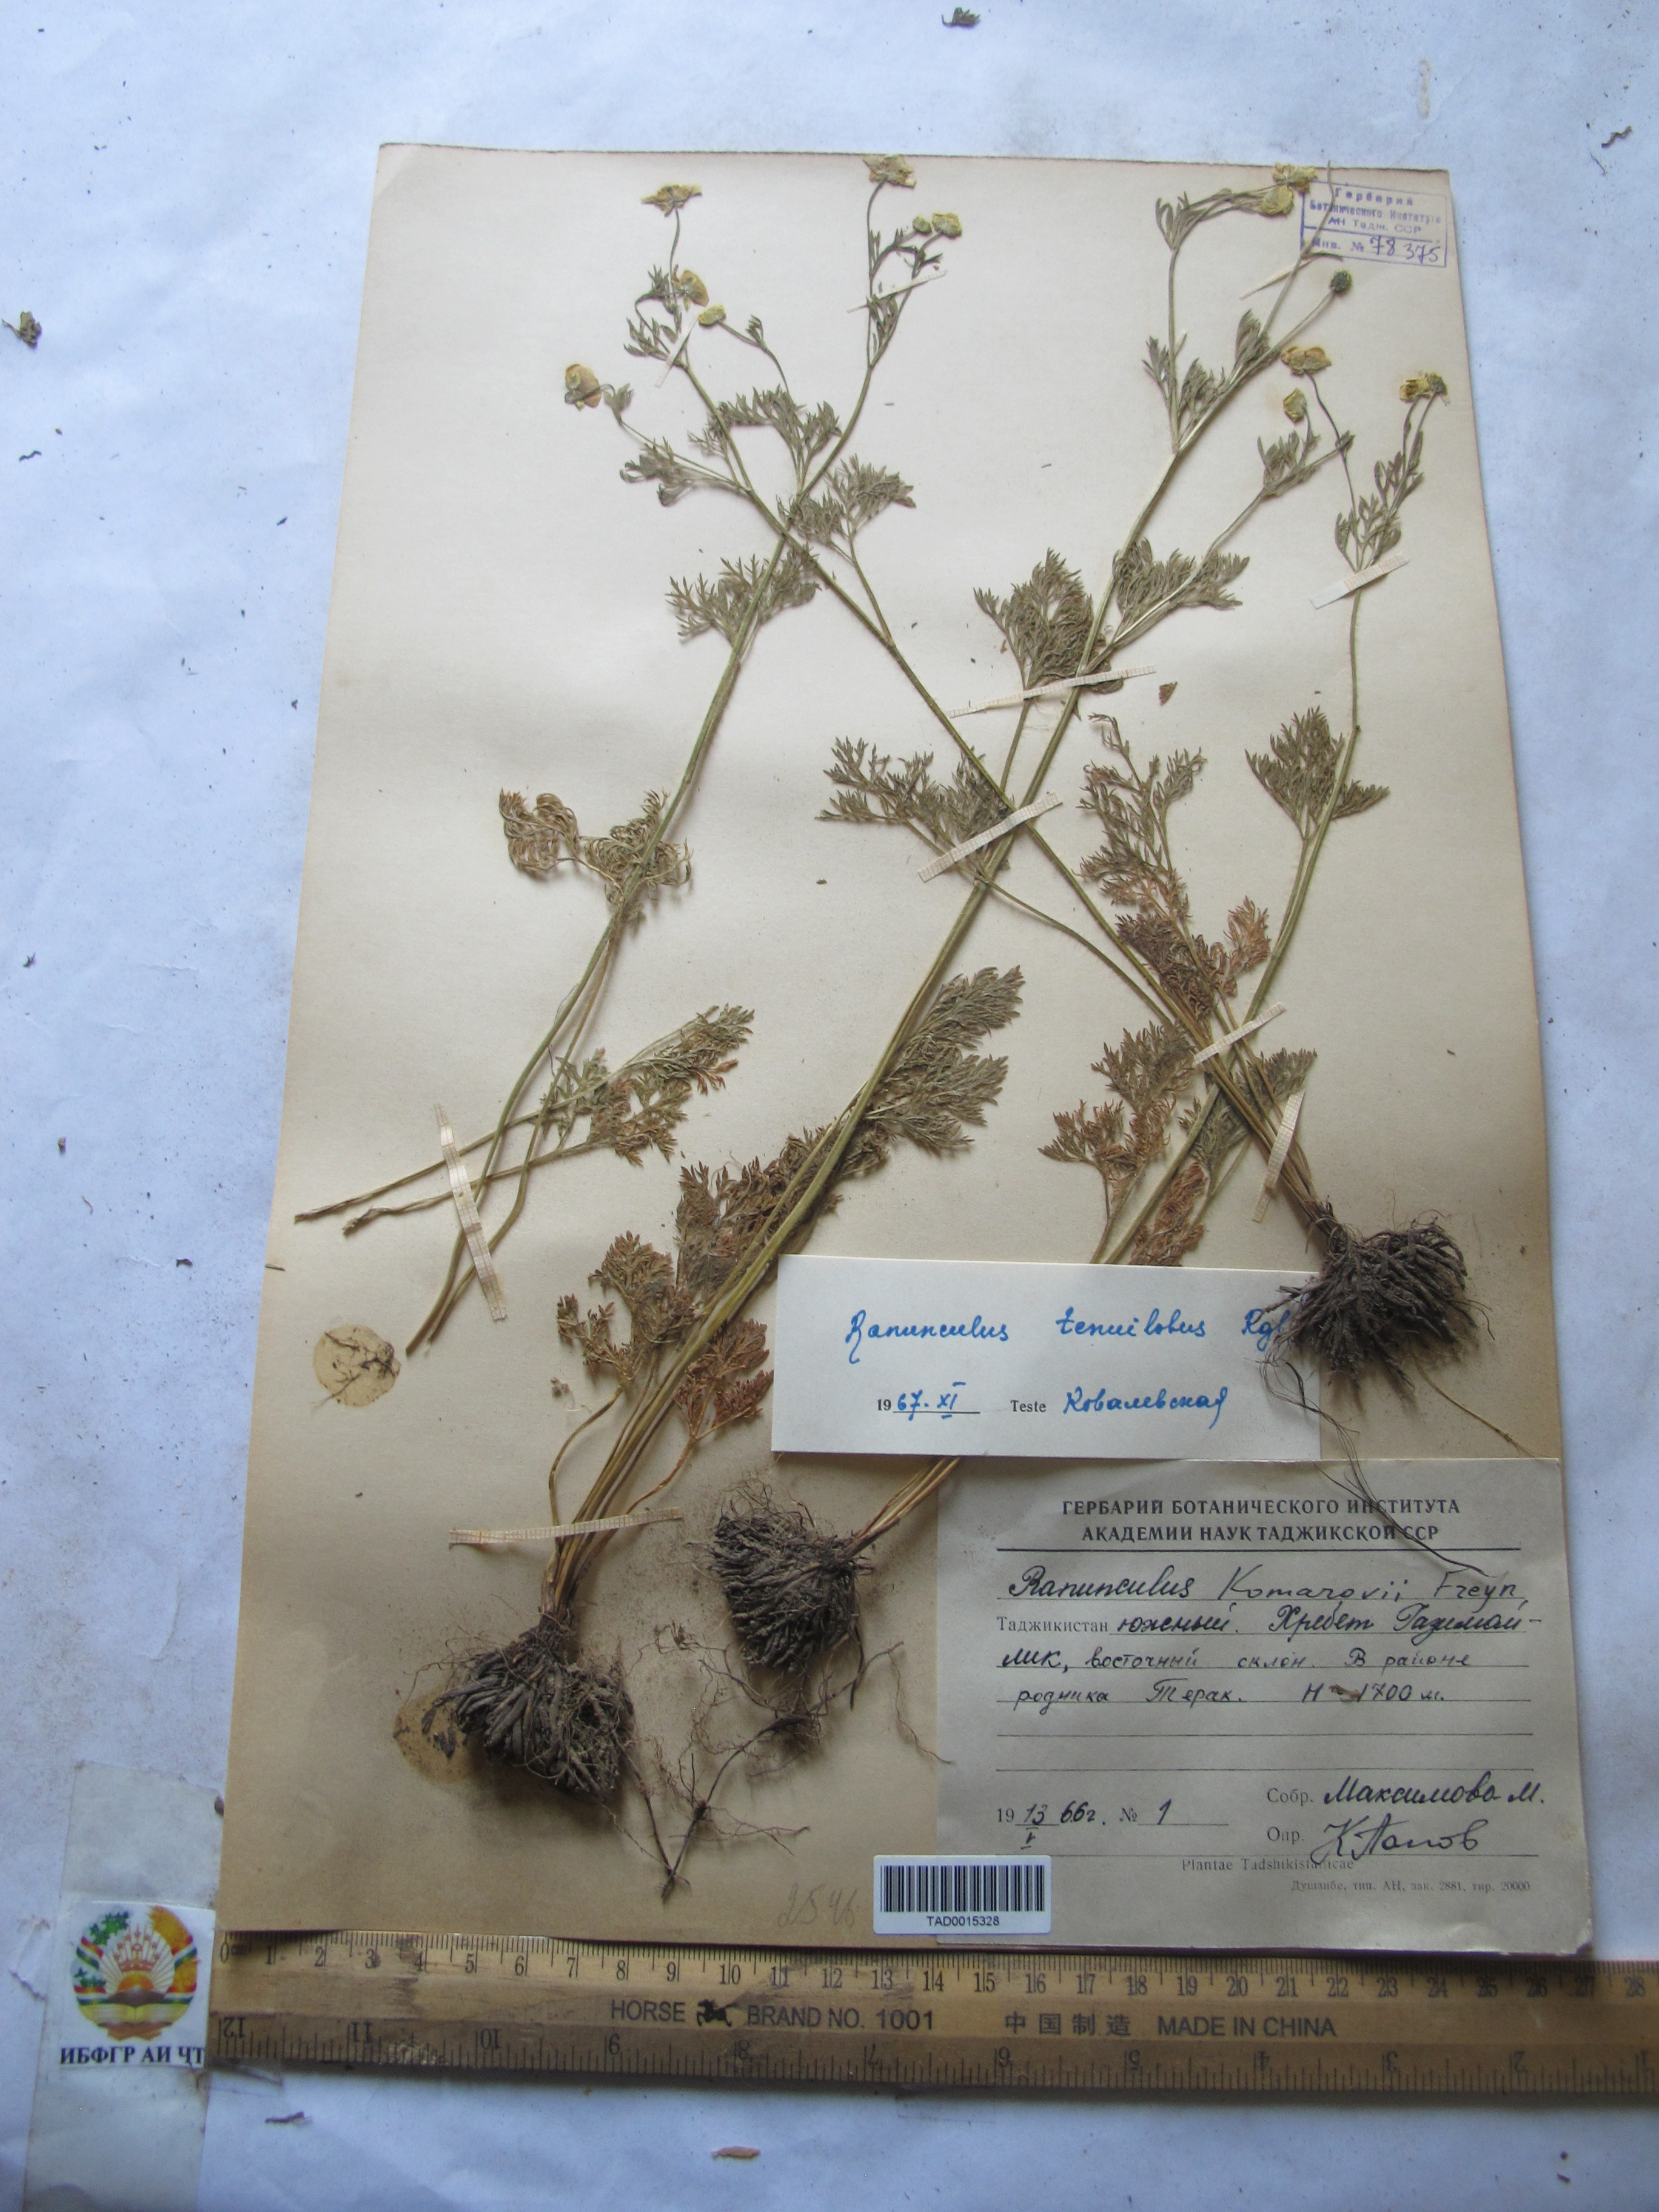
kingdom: Plantae
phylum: Tracheophyta
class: Magnoliopsida
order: Ranunculales
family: Ranunculaceae
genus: Ranunculus
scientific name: Ranunculus tenuilobus
